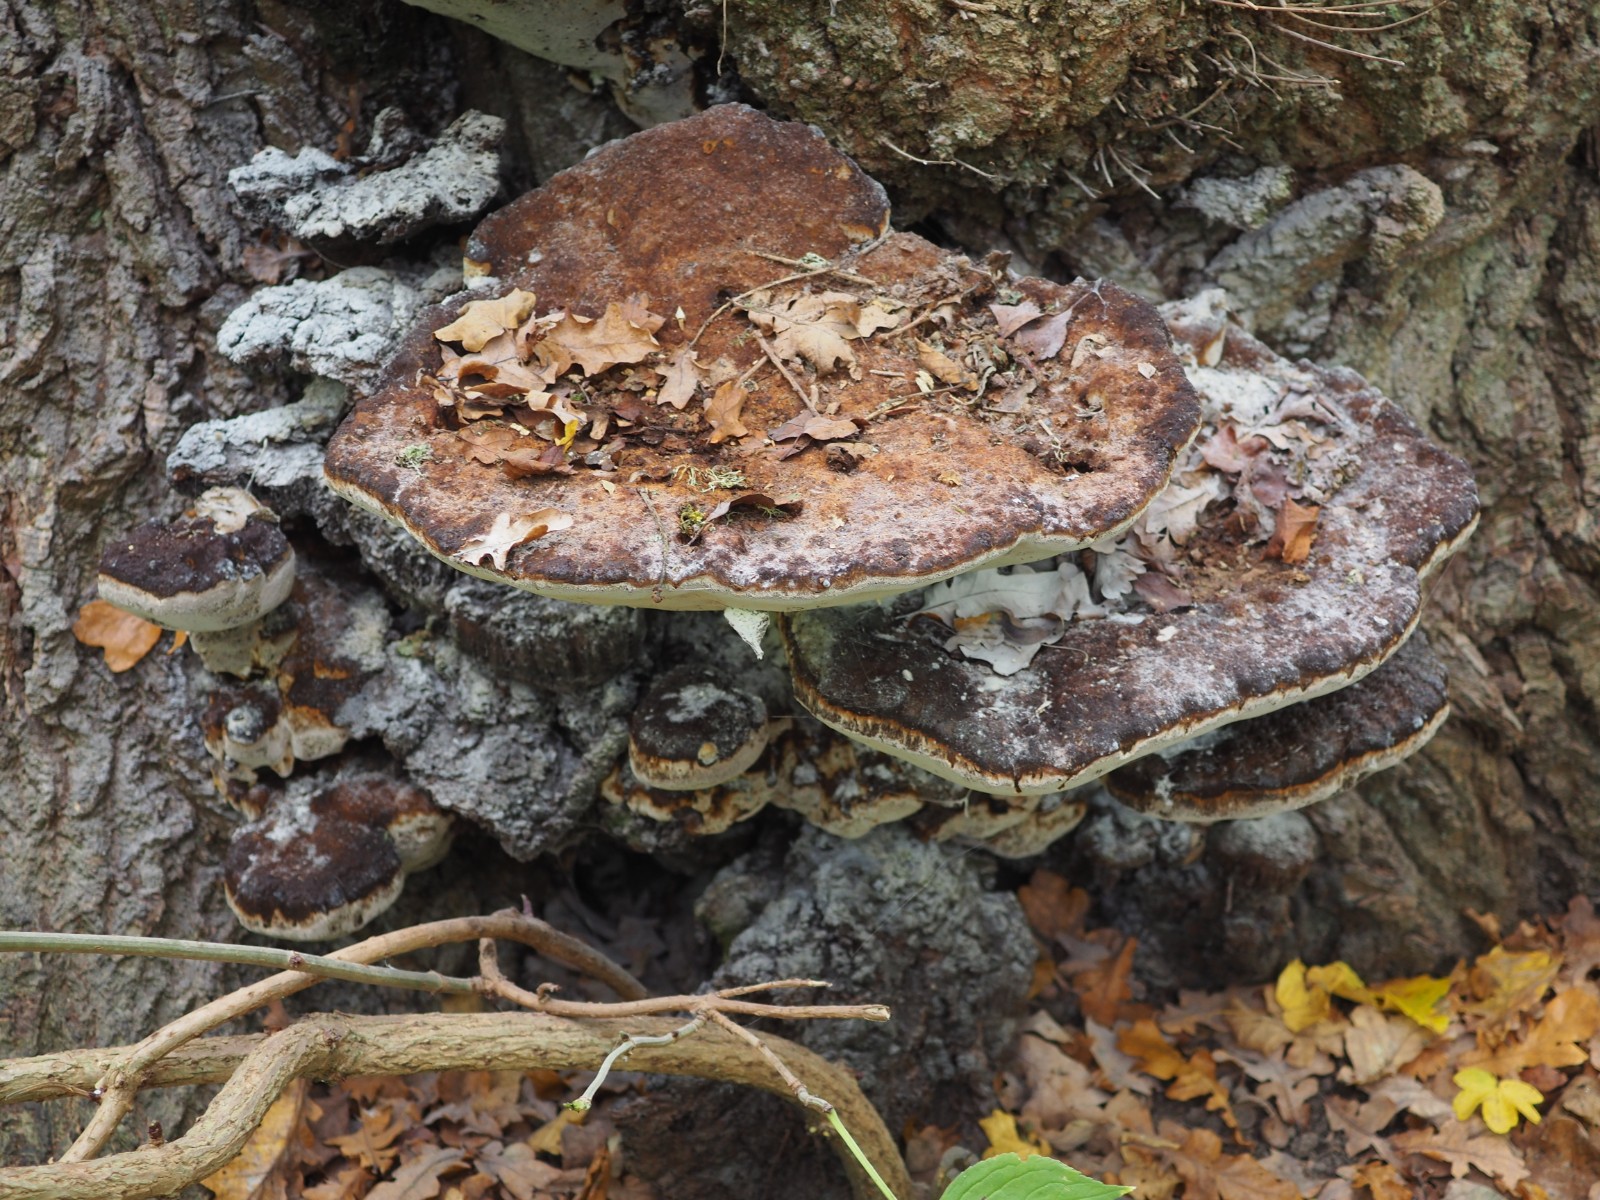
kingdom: Fungi
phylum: Basidiomycota
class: Agaricomycetes
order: Hymenochaetales
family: Hymenochaetaceae
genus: Pseudoinonotus
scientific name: Pseudoinonotus dryadeus
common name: ege-spejlporesvamp
